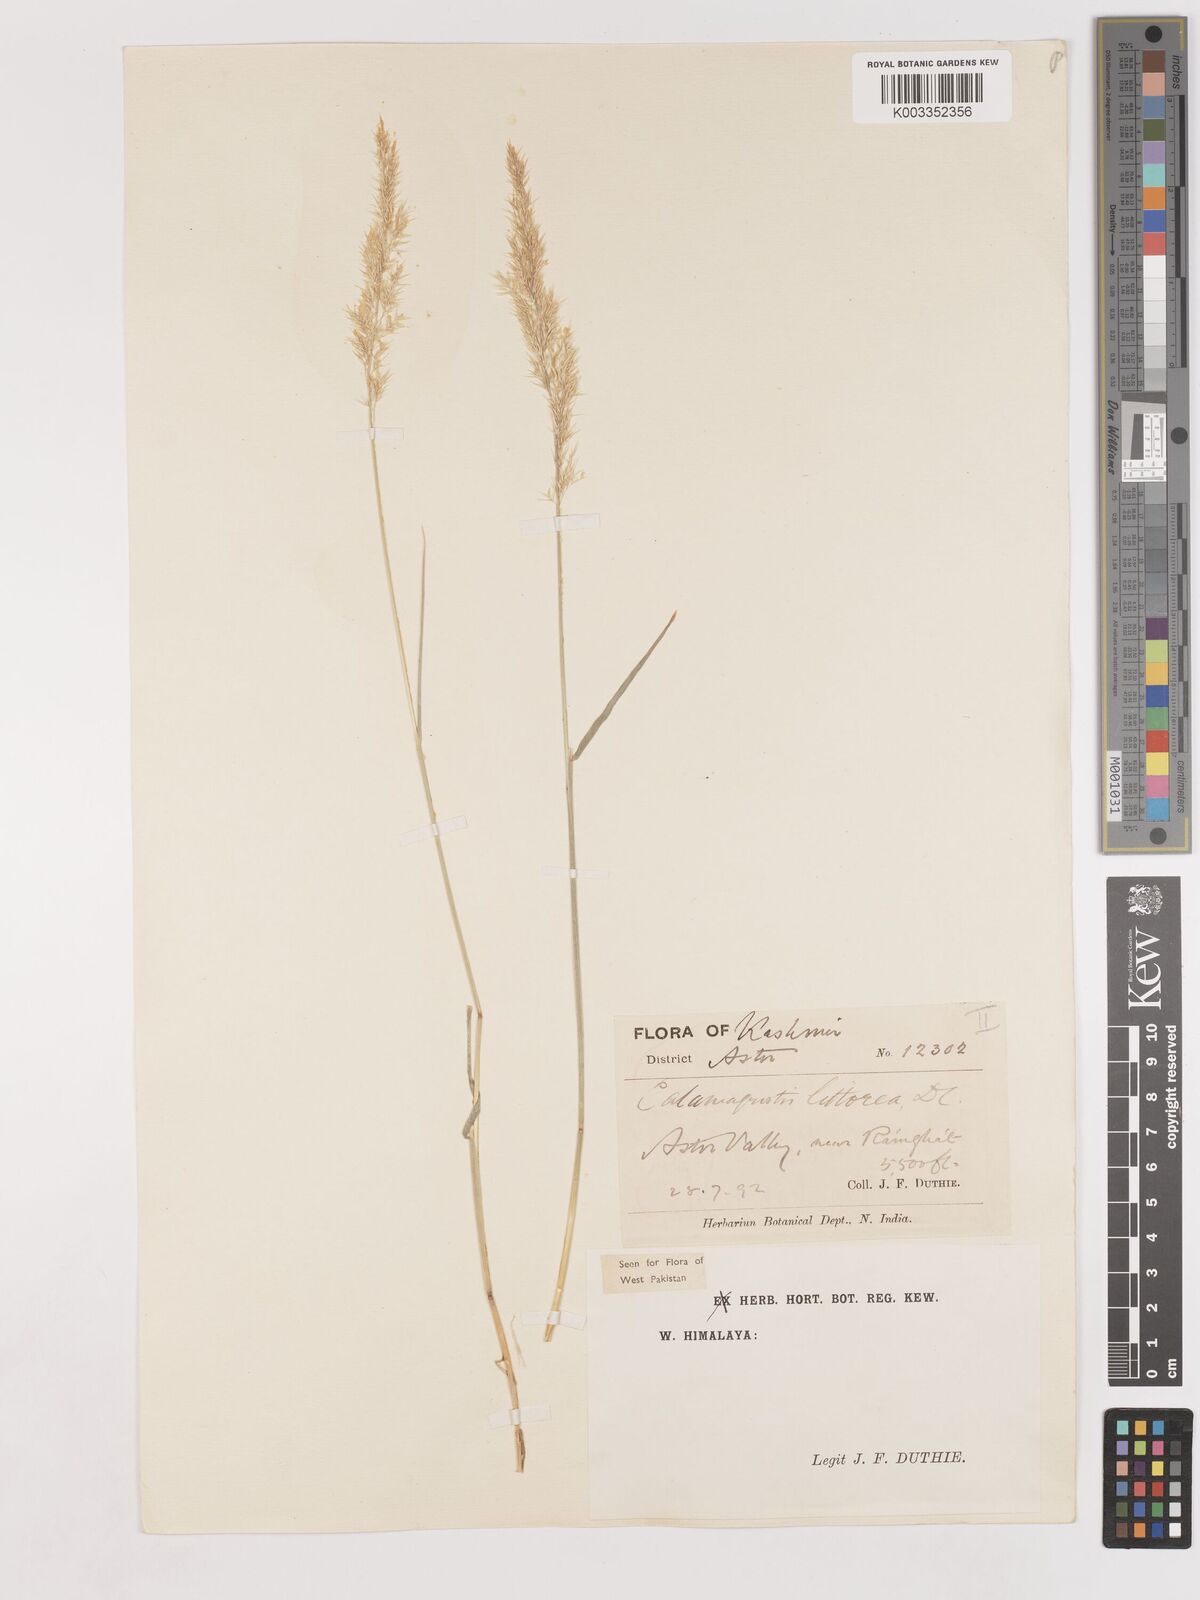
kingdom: Plantae
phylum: Tracheophyta
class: Liliopsida
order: Poales
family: Poaceae
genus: Calamagrostis
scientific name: Calamagrostis pseudophragmites
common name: Coastal small-reed
